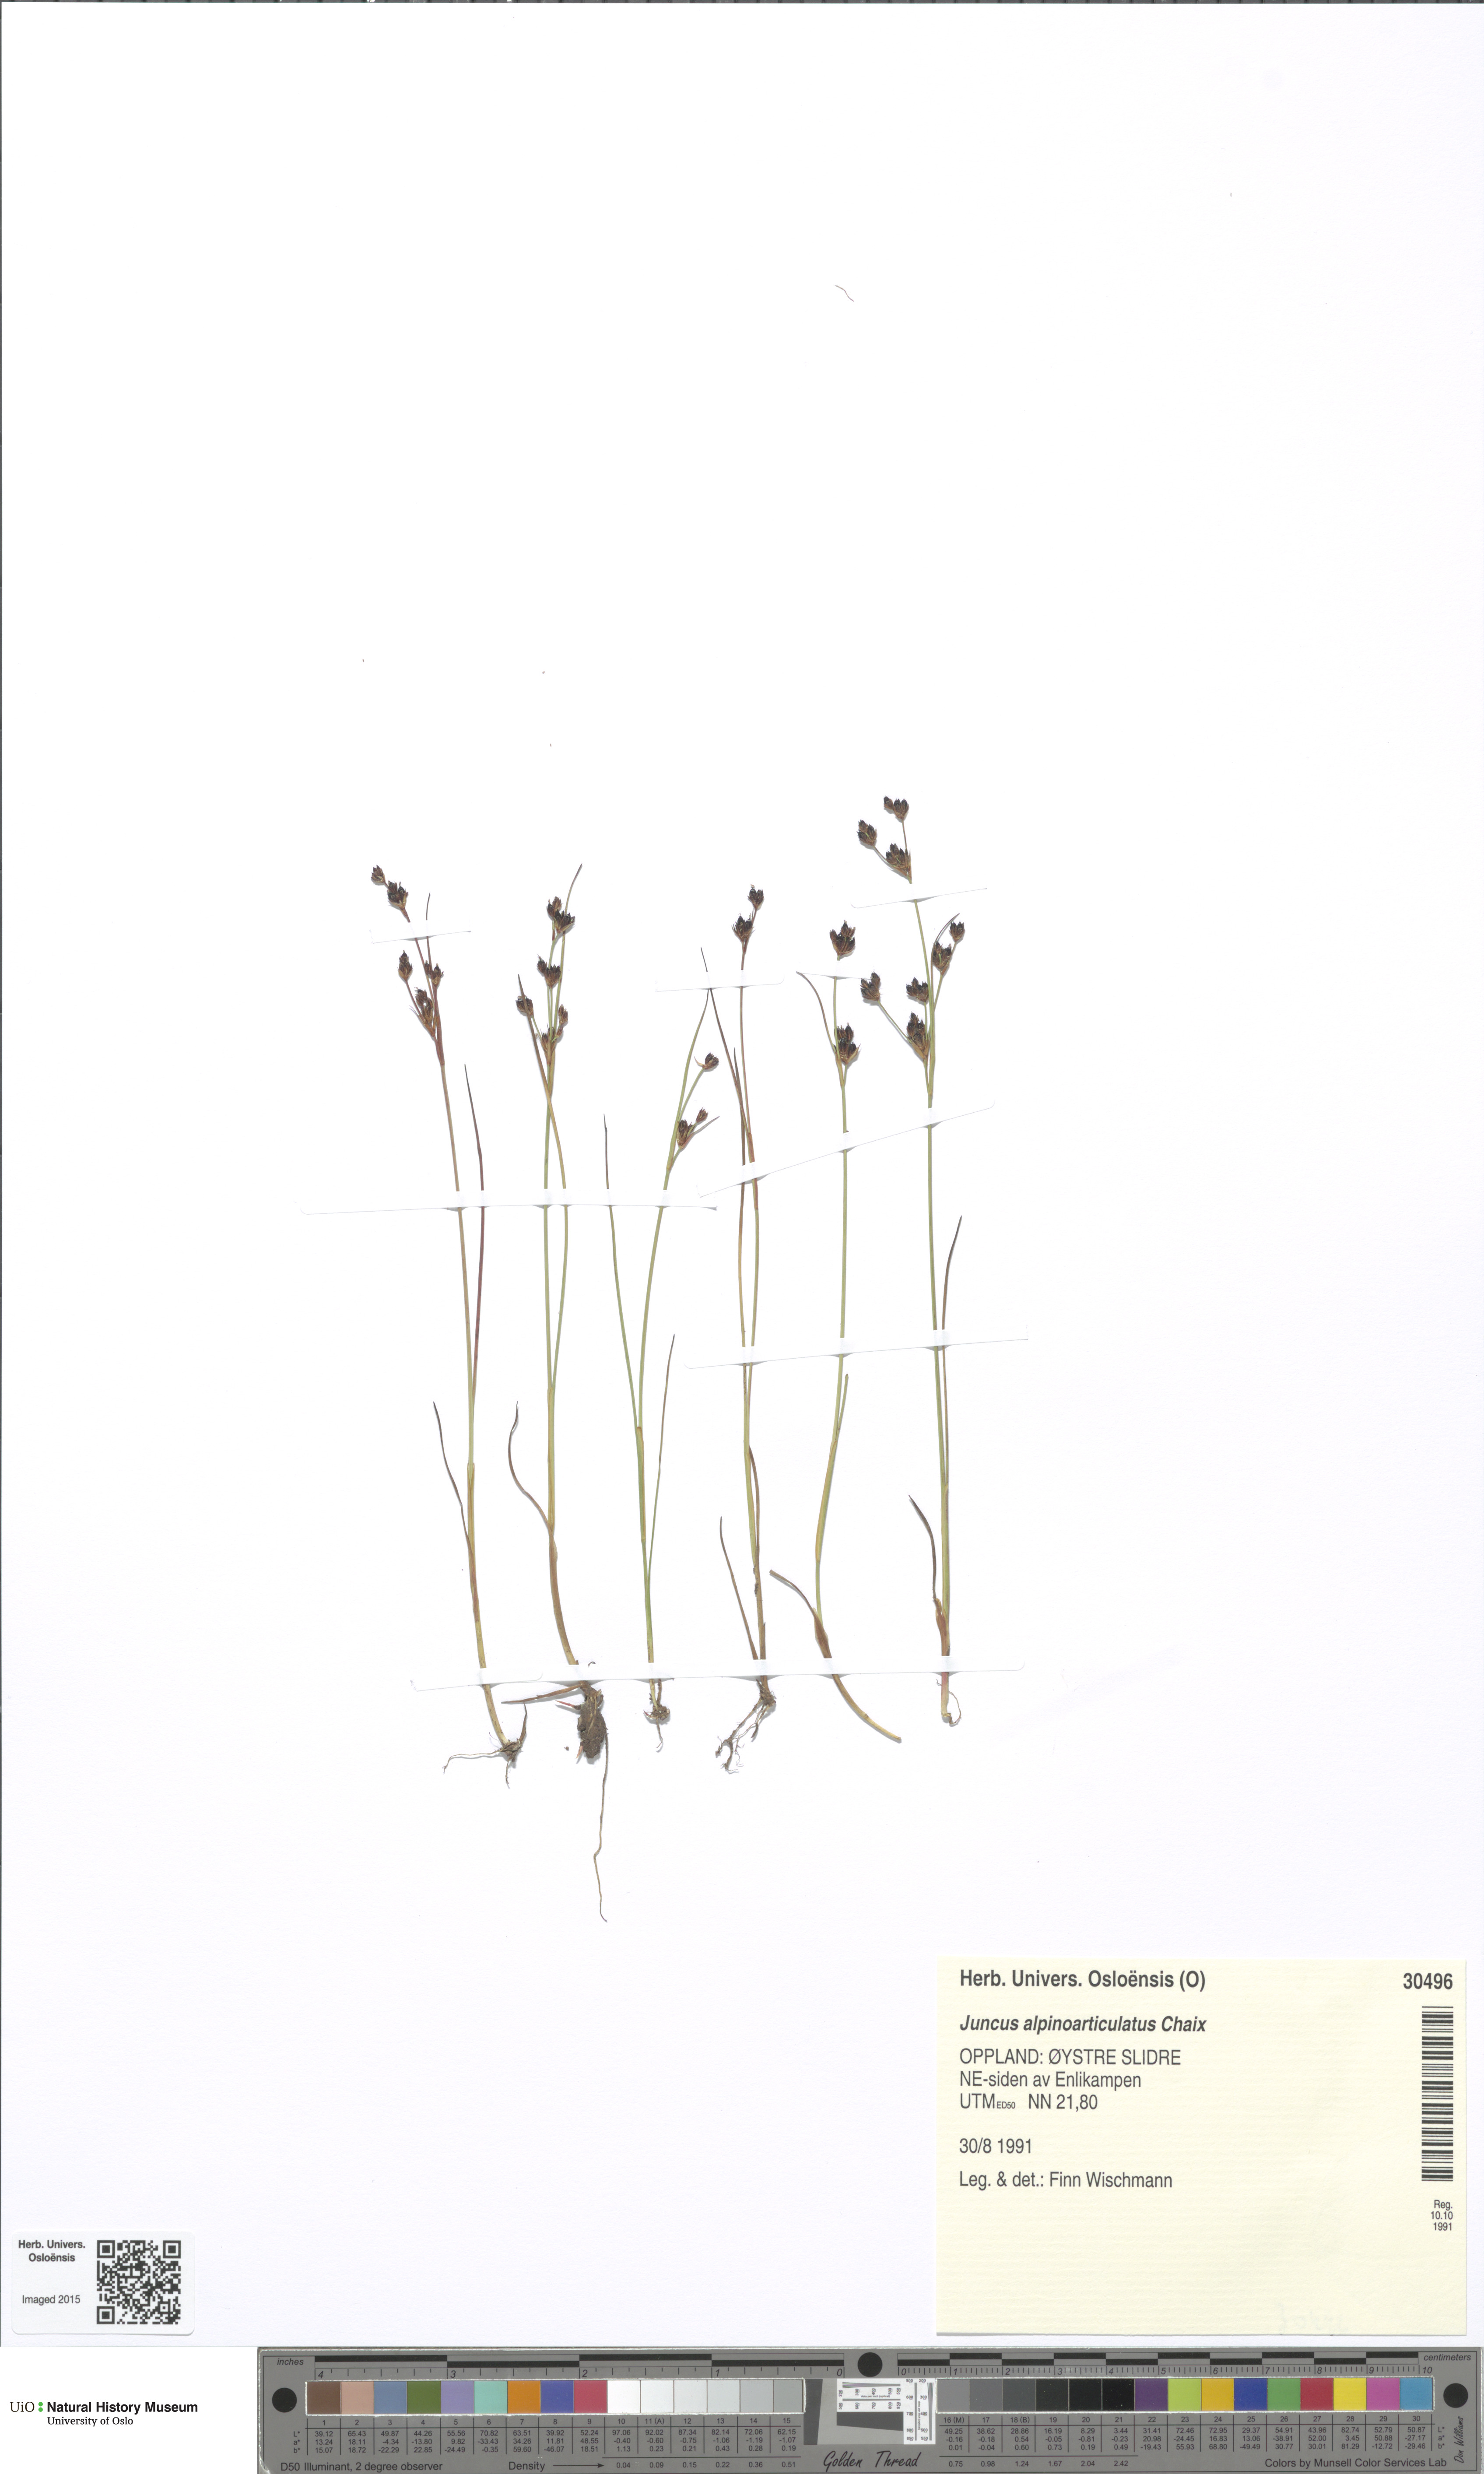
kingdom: Plantae
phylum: Tracheophyta
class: Liliopsida
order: Poales
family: Juncaceae
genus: Juncus
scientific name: Juncus alpinoarticulatus
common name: Alpine rush
